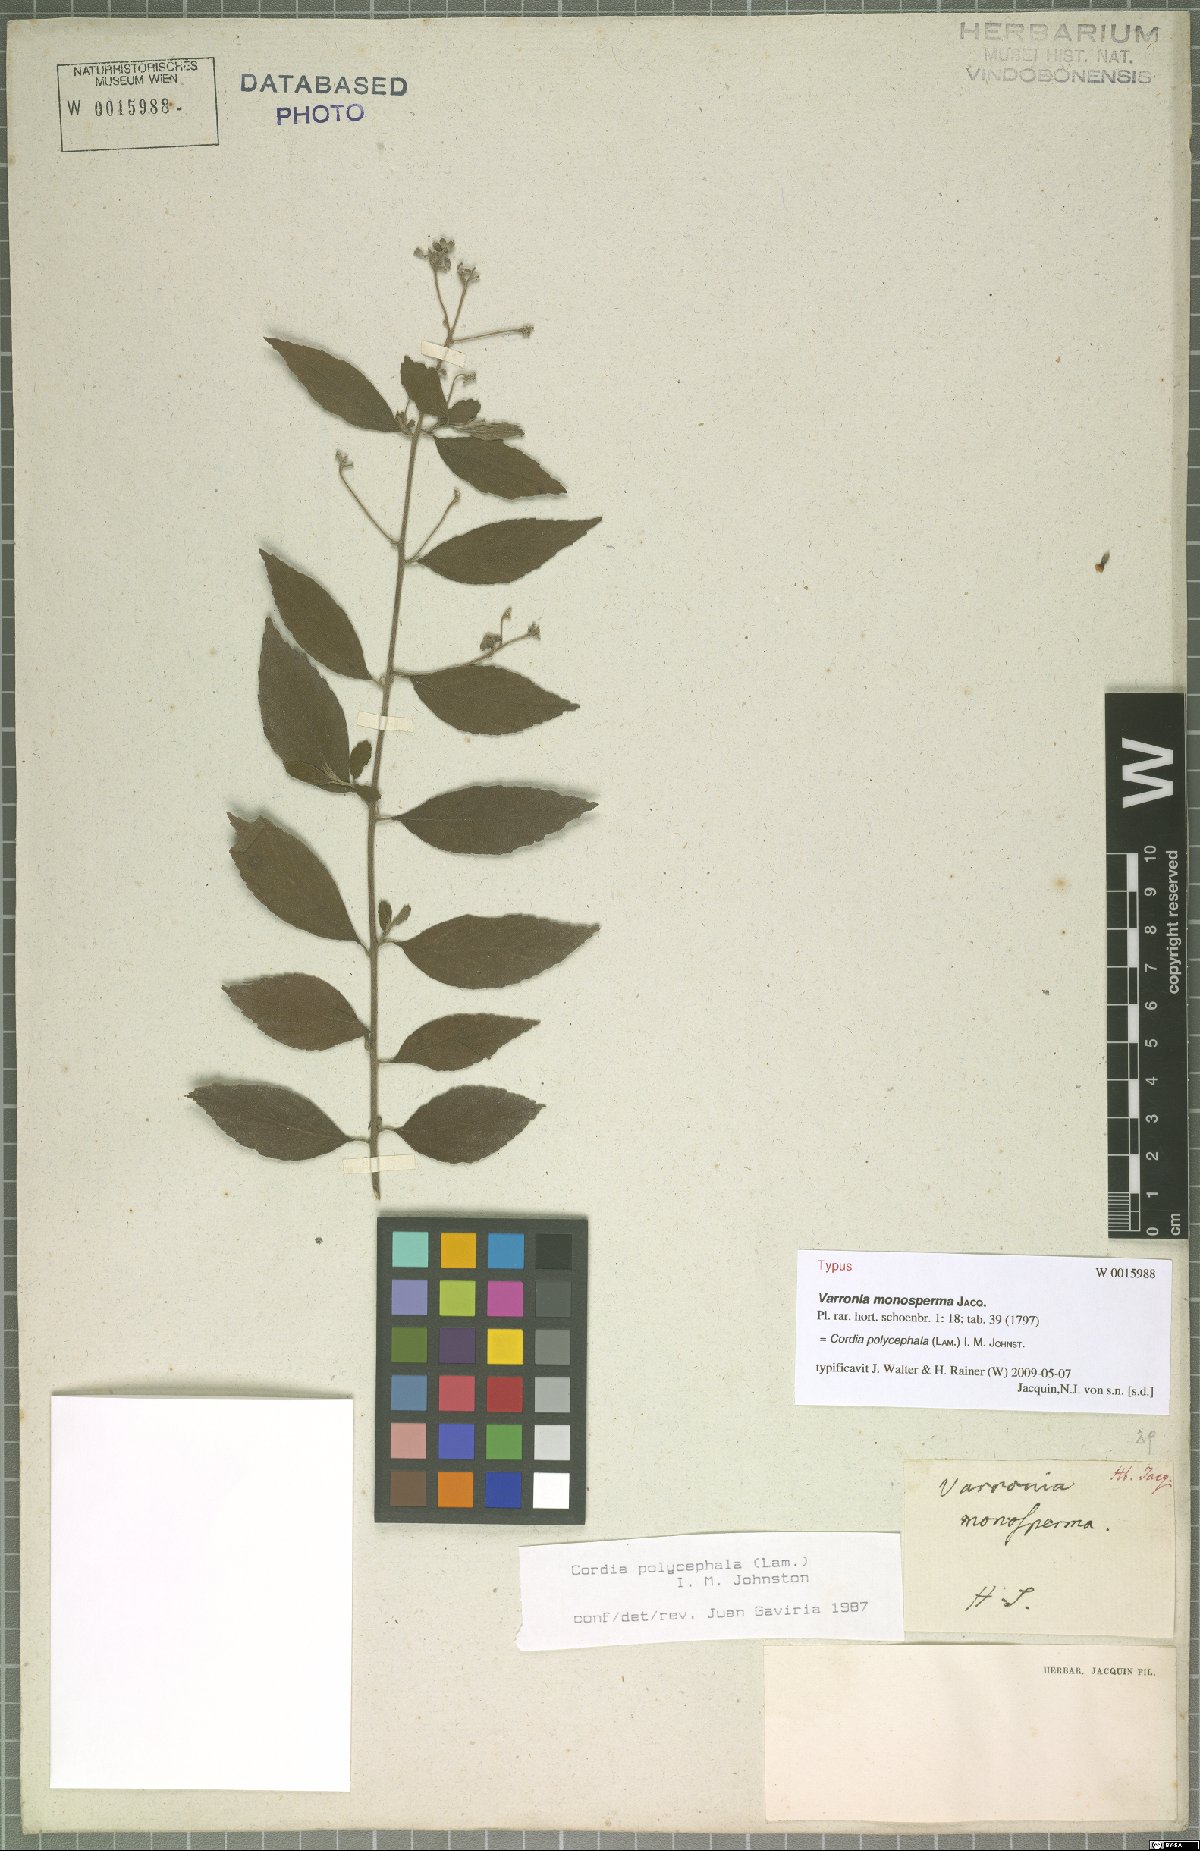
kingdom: Plantae
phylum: Tracheophyta
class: Magnoliopsida
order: Boraginales
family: Cordiaceae
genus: Varronia
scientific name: Varronia polycephala
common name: Black-sage
